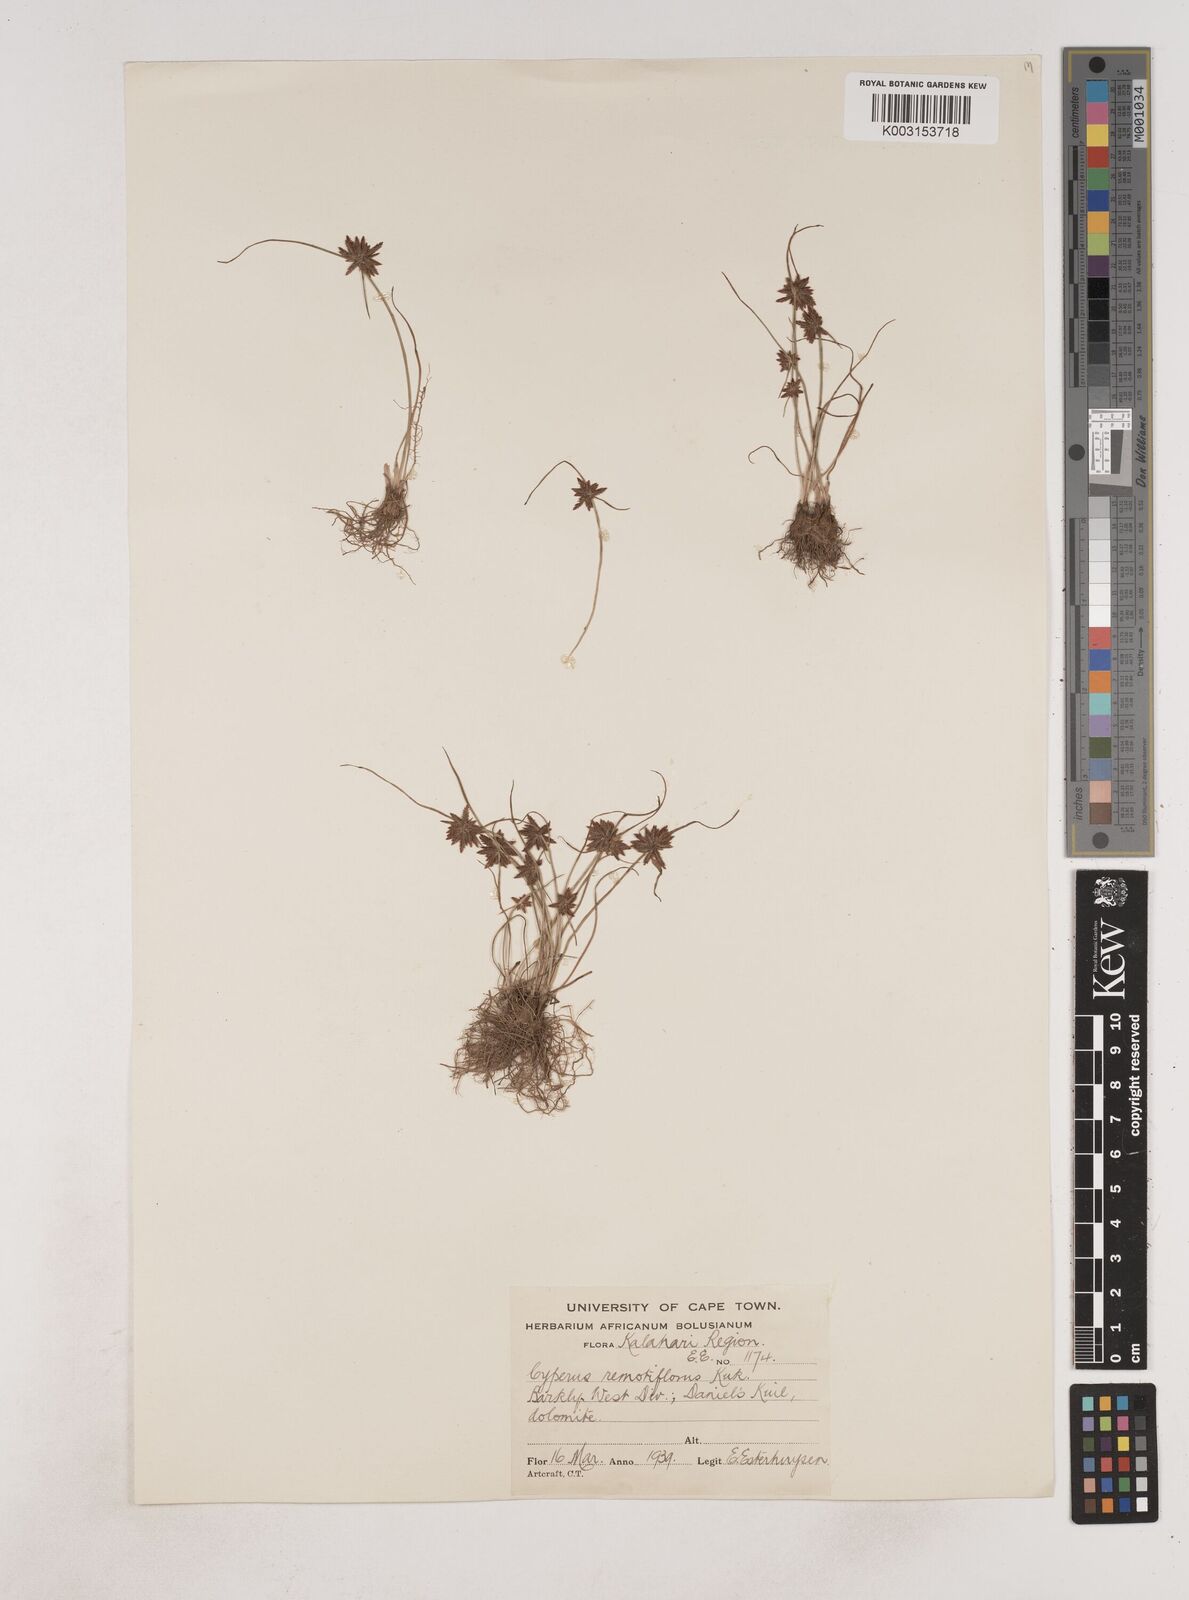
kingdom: Plantae
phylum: Tracheophyta
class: Liliopsida
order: Poales
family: Cyperaceae
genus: Cyperus
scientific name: Cyperus remotiflorus
